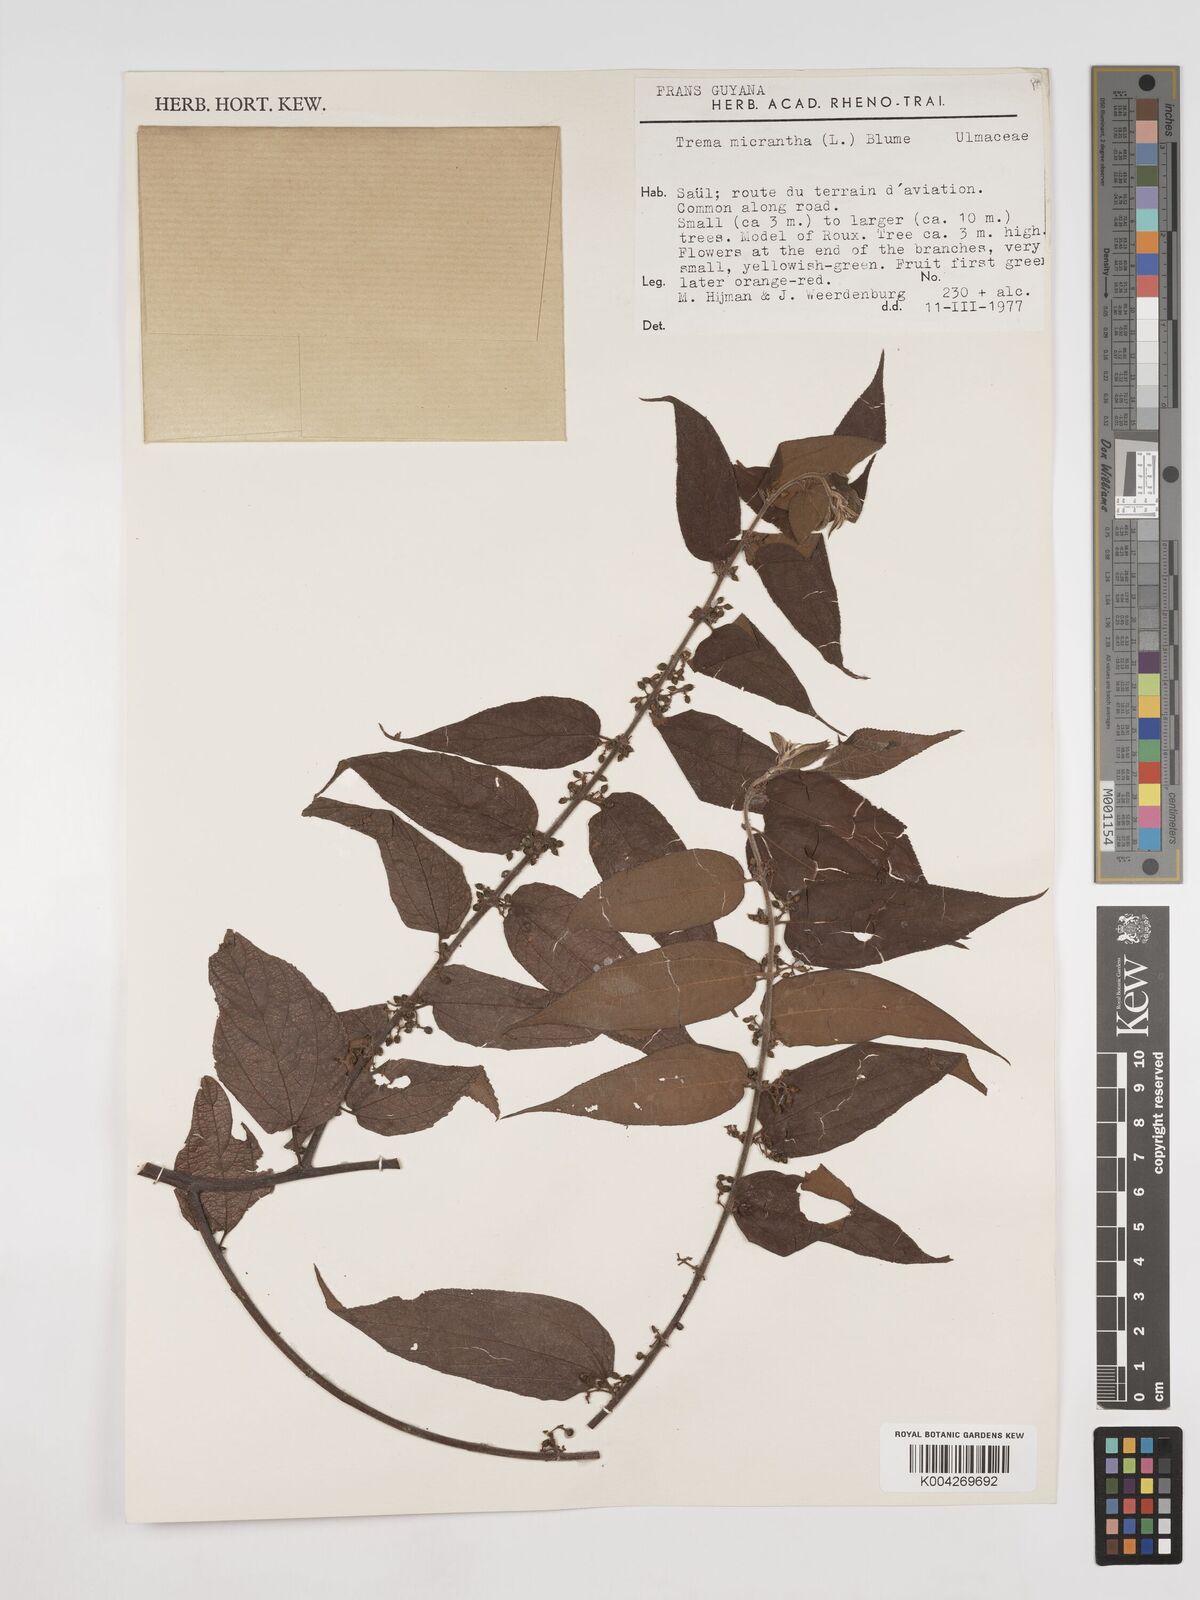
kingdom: Plantae
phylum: Tracheophyta
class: Magnoliopsida
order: Rosales
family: Cannabaceae
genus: Trema
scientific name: Trema micranthum
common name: Jamaican nettletree
